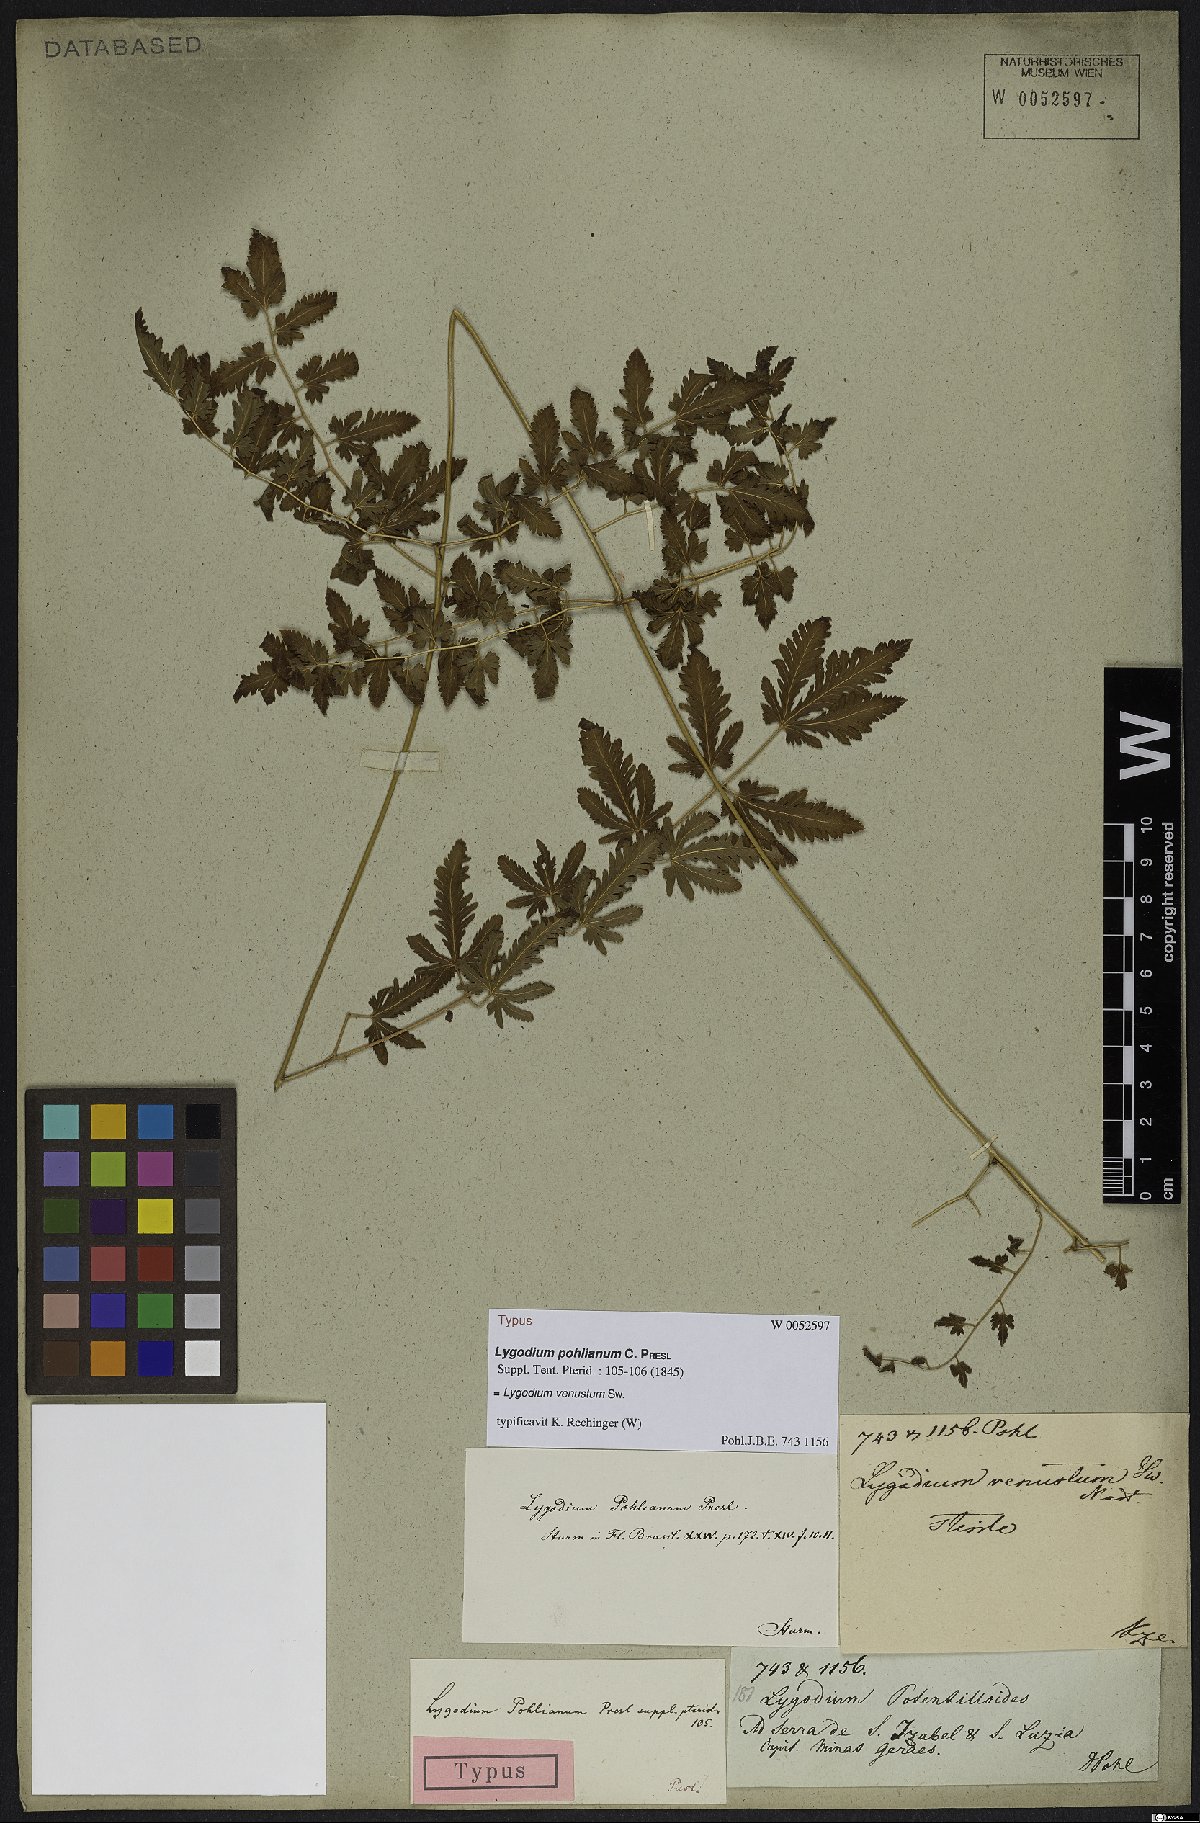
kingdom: Plantae
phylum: Tracheophyta
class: Polypodiopsida
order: Schizaeales
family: Lygodiaceae
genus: Lygodium
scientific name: Lygodium venustum
